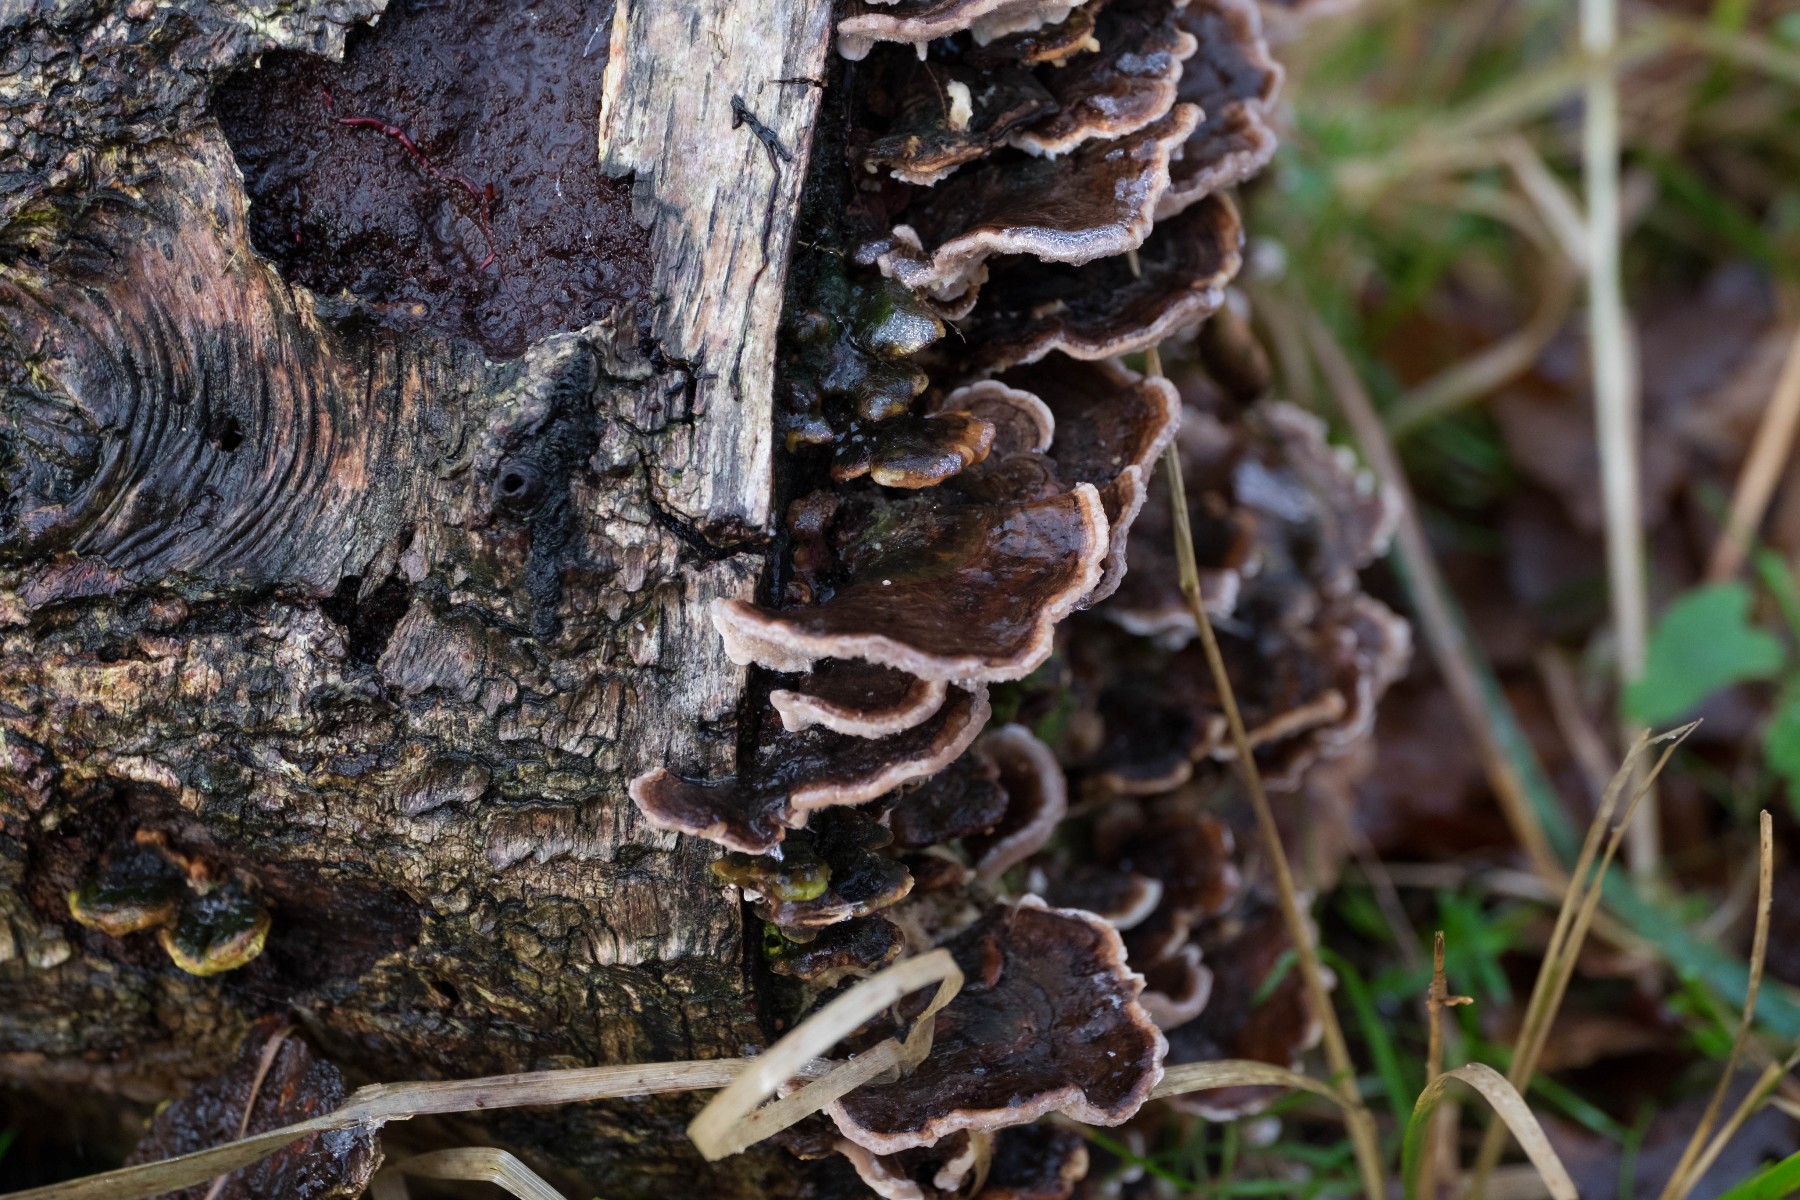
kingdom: Fungi
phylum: Basidiomycota
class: Agaricomycetes
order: Polyporales
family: Polyporaceae
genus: Trametes
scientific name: Trametes versicolor
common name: broget læderporesvamp
